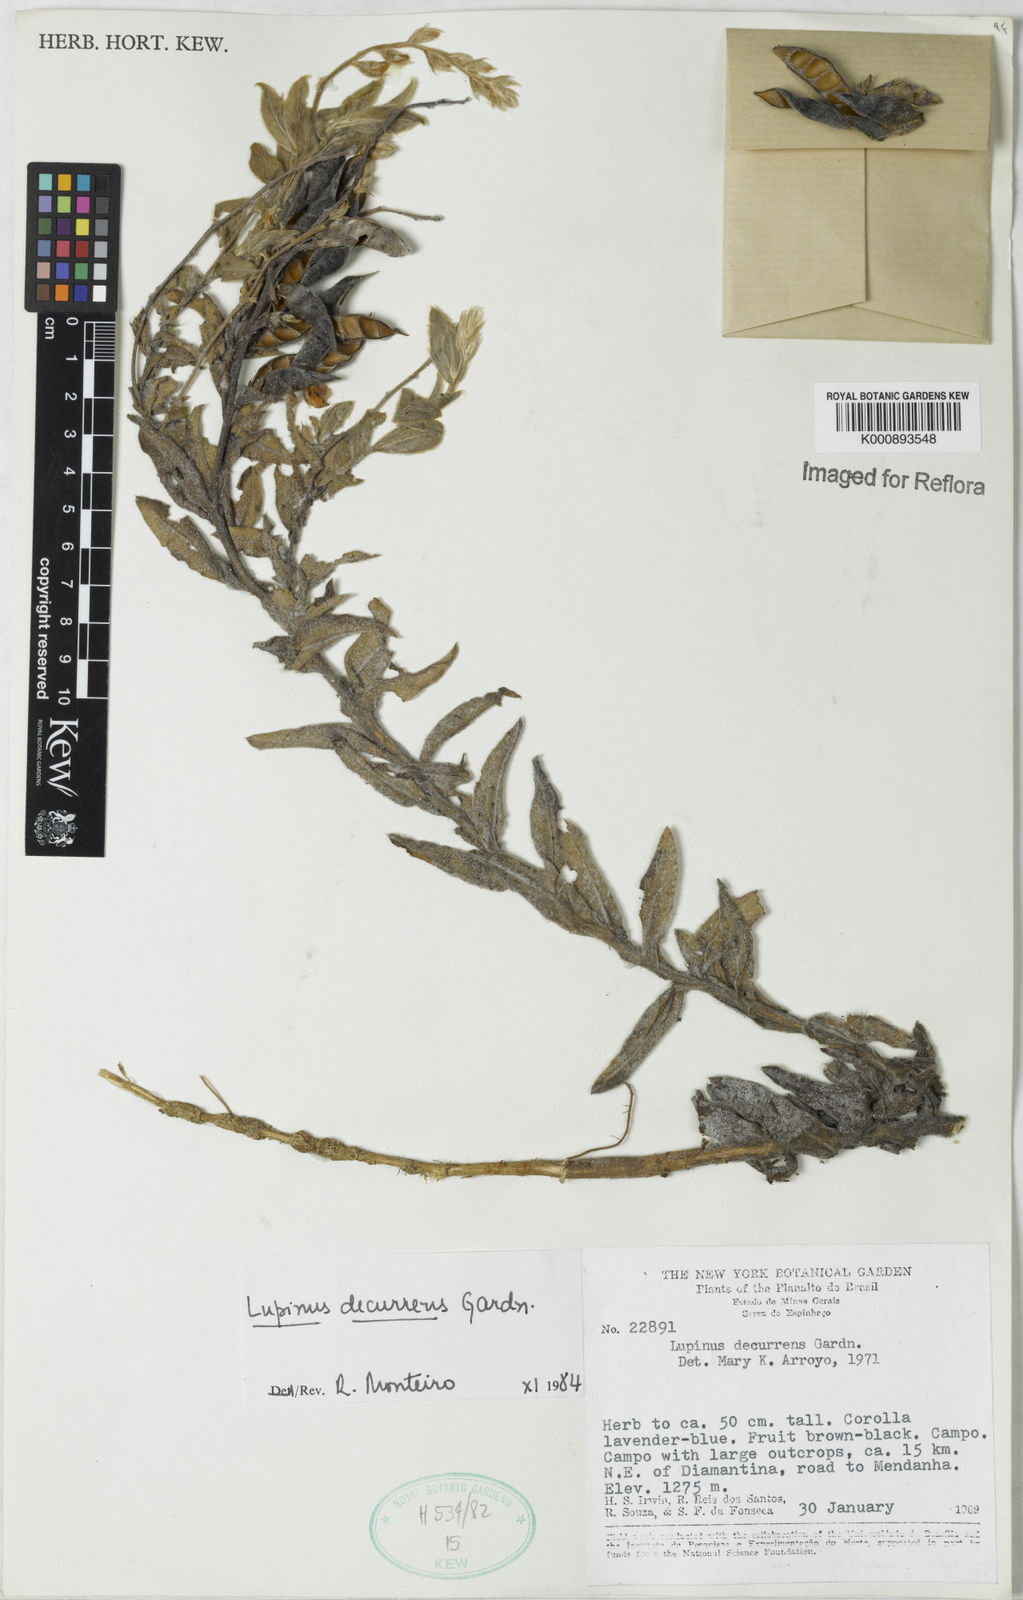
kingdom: Plantae
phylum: Tracheophyta
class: Magnoliopsida
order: Fabales
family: Fabaceae
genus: Lupinus
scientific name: Lupinus decurrens
